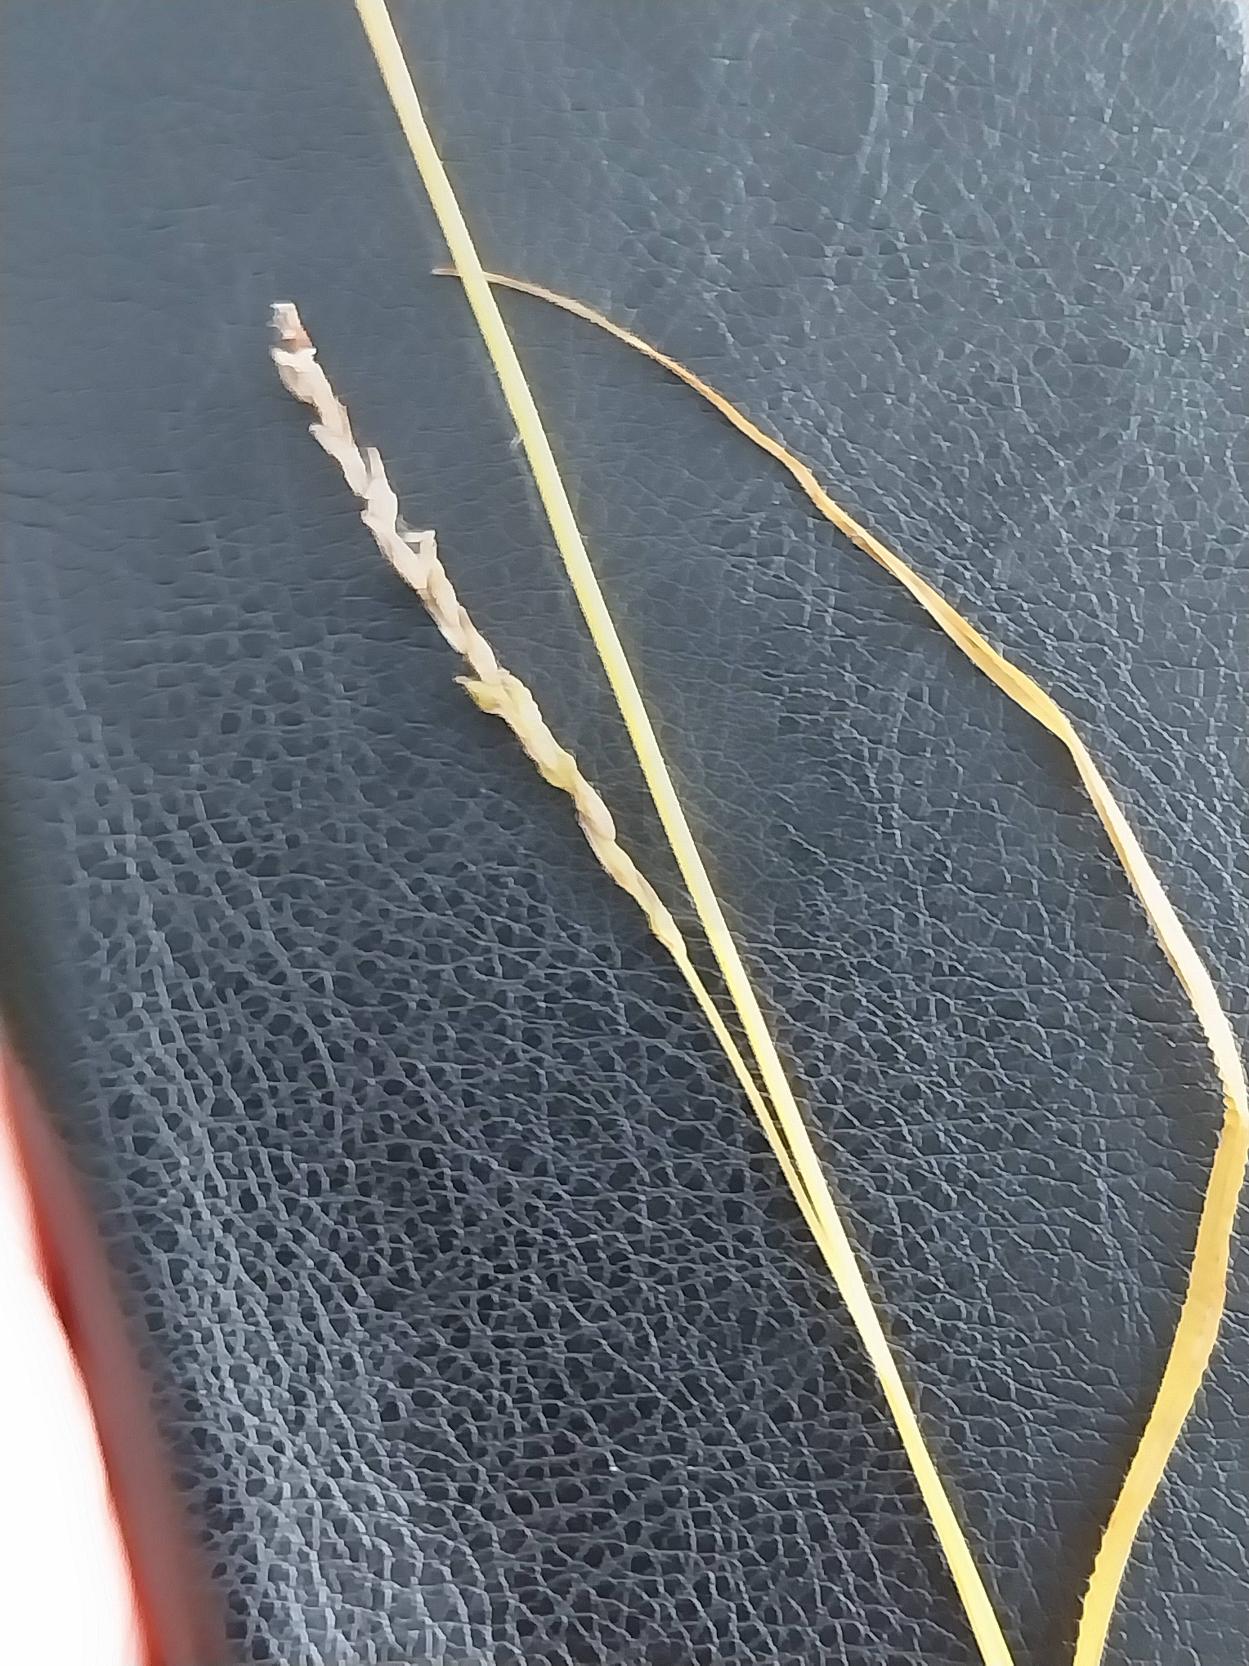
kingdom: Plantae
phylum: Tracheophyta
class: Liliopsida
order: Poales
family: Cyperaceae
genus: Carex
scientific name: Carex sylvatica
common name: Skov-star
